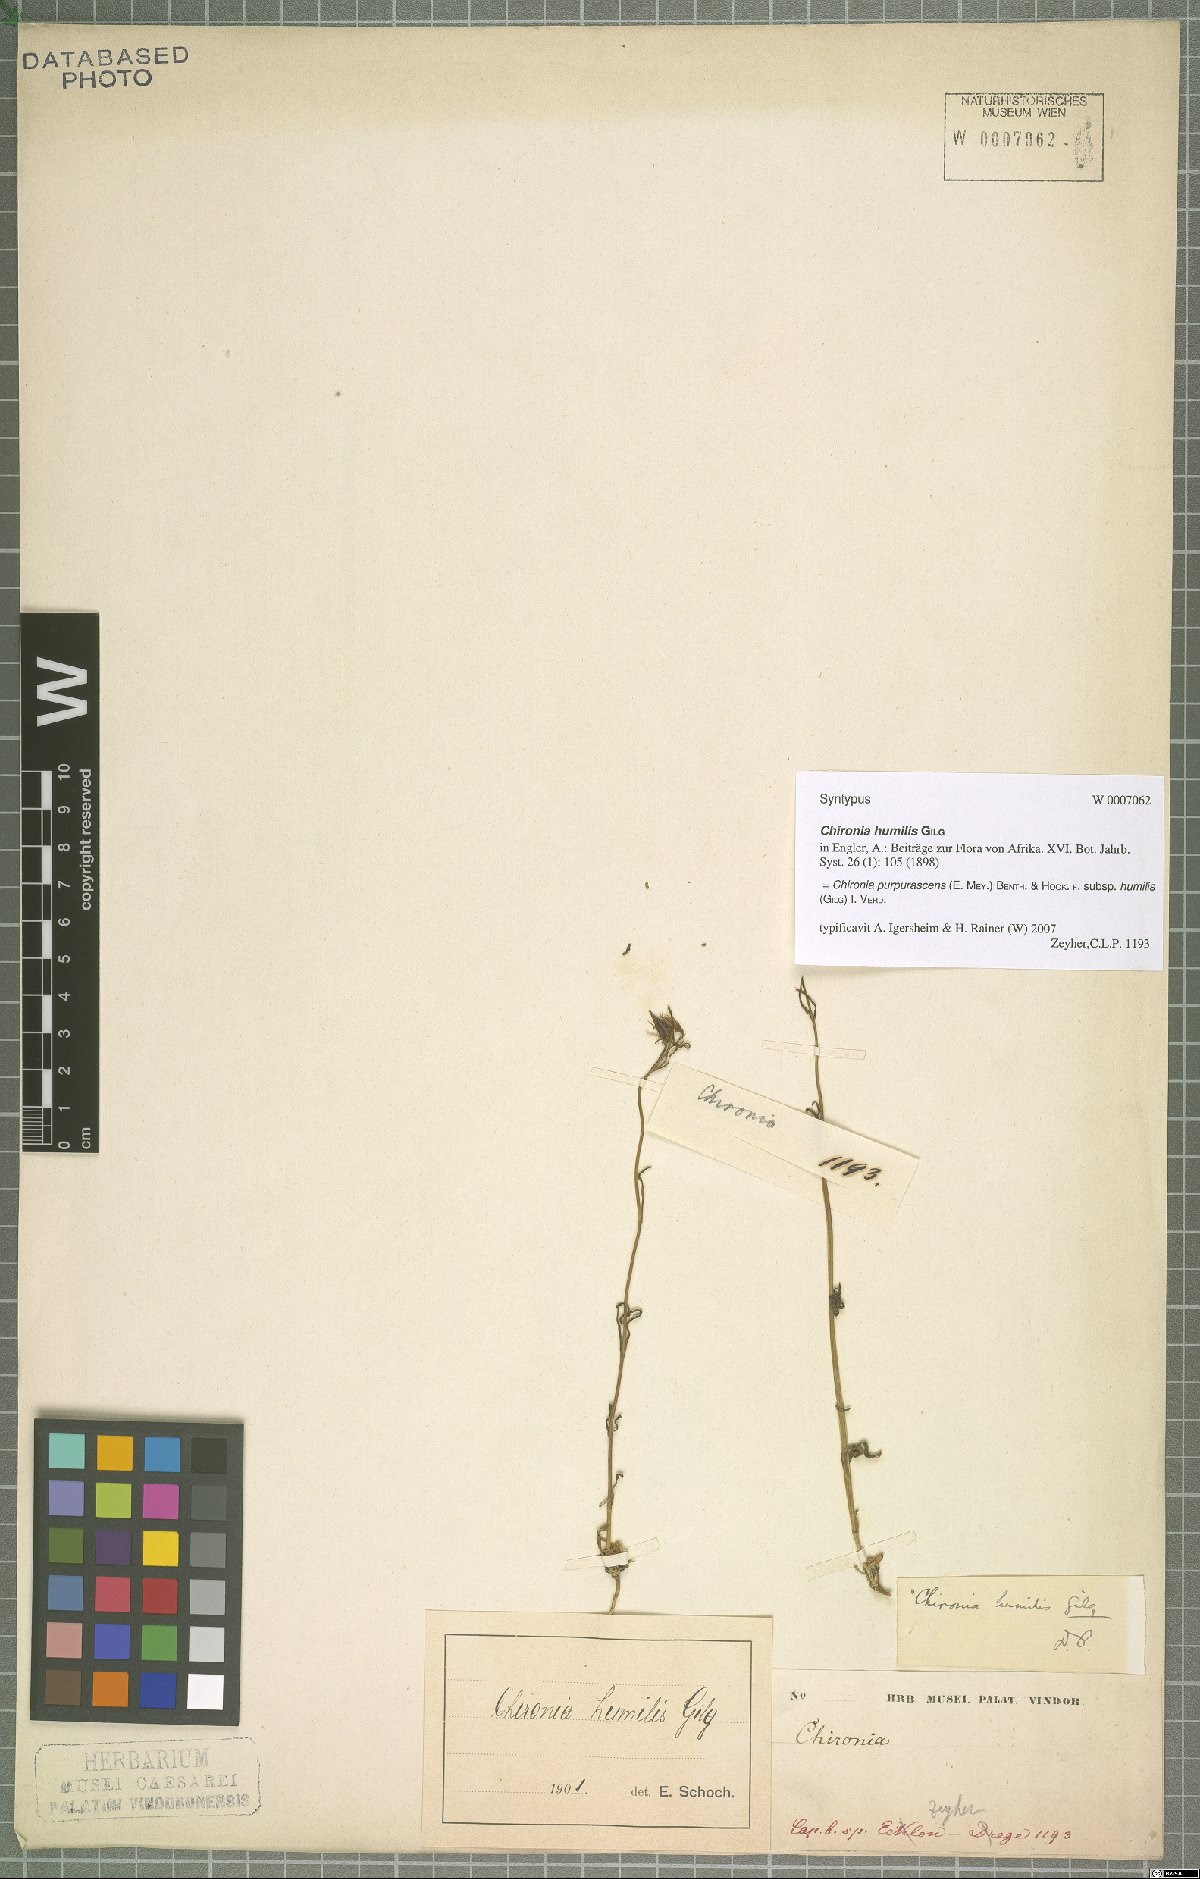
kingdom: Plantae
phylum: Tracheophyta
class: Magnoliopsida
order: Gentianales
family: Gentianaceae
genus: Chironia
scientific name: Chironia purpurascens
